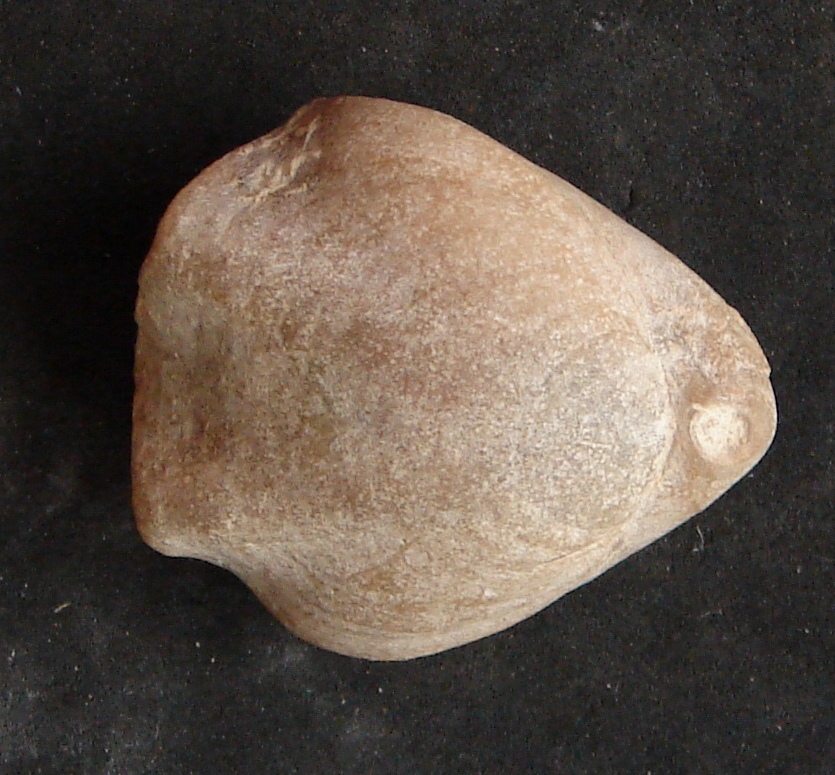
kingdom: Animalia
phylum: Brachiopoda
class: Rhynchonellata
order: Terebratulida
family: Terebratulidae
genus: Avonothyris
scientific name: Avonothyris Terebratula langtonensis
